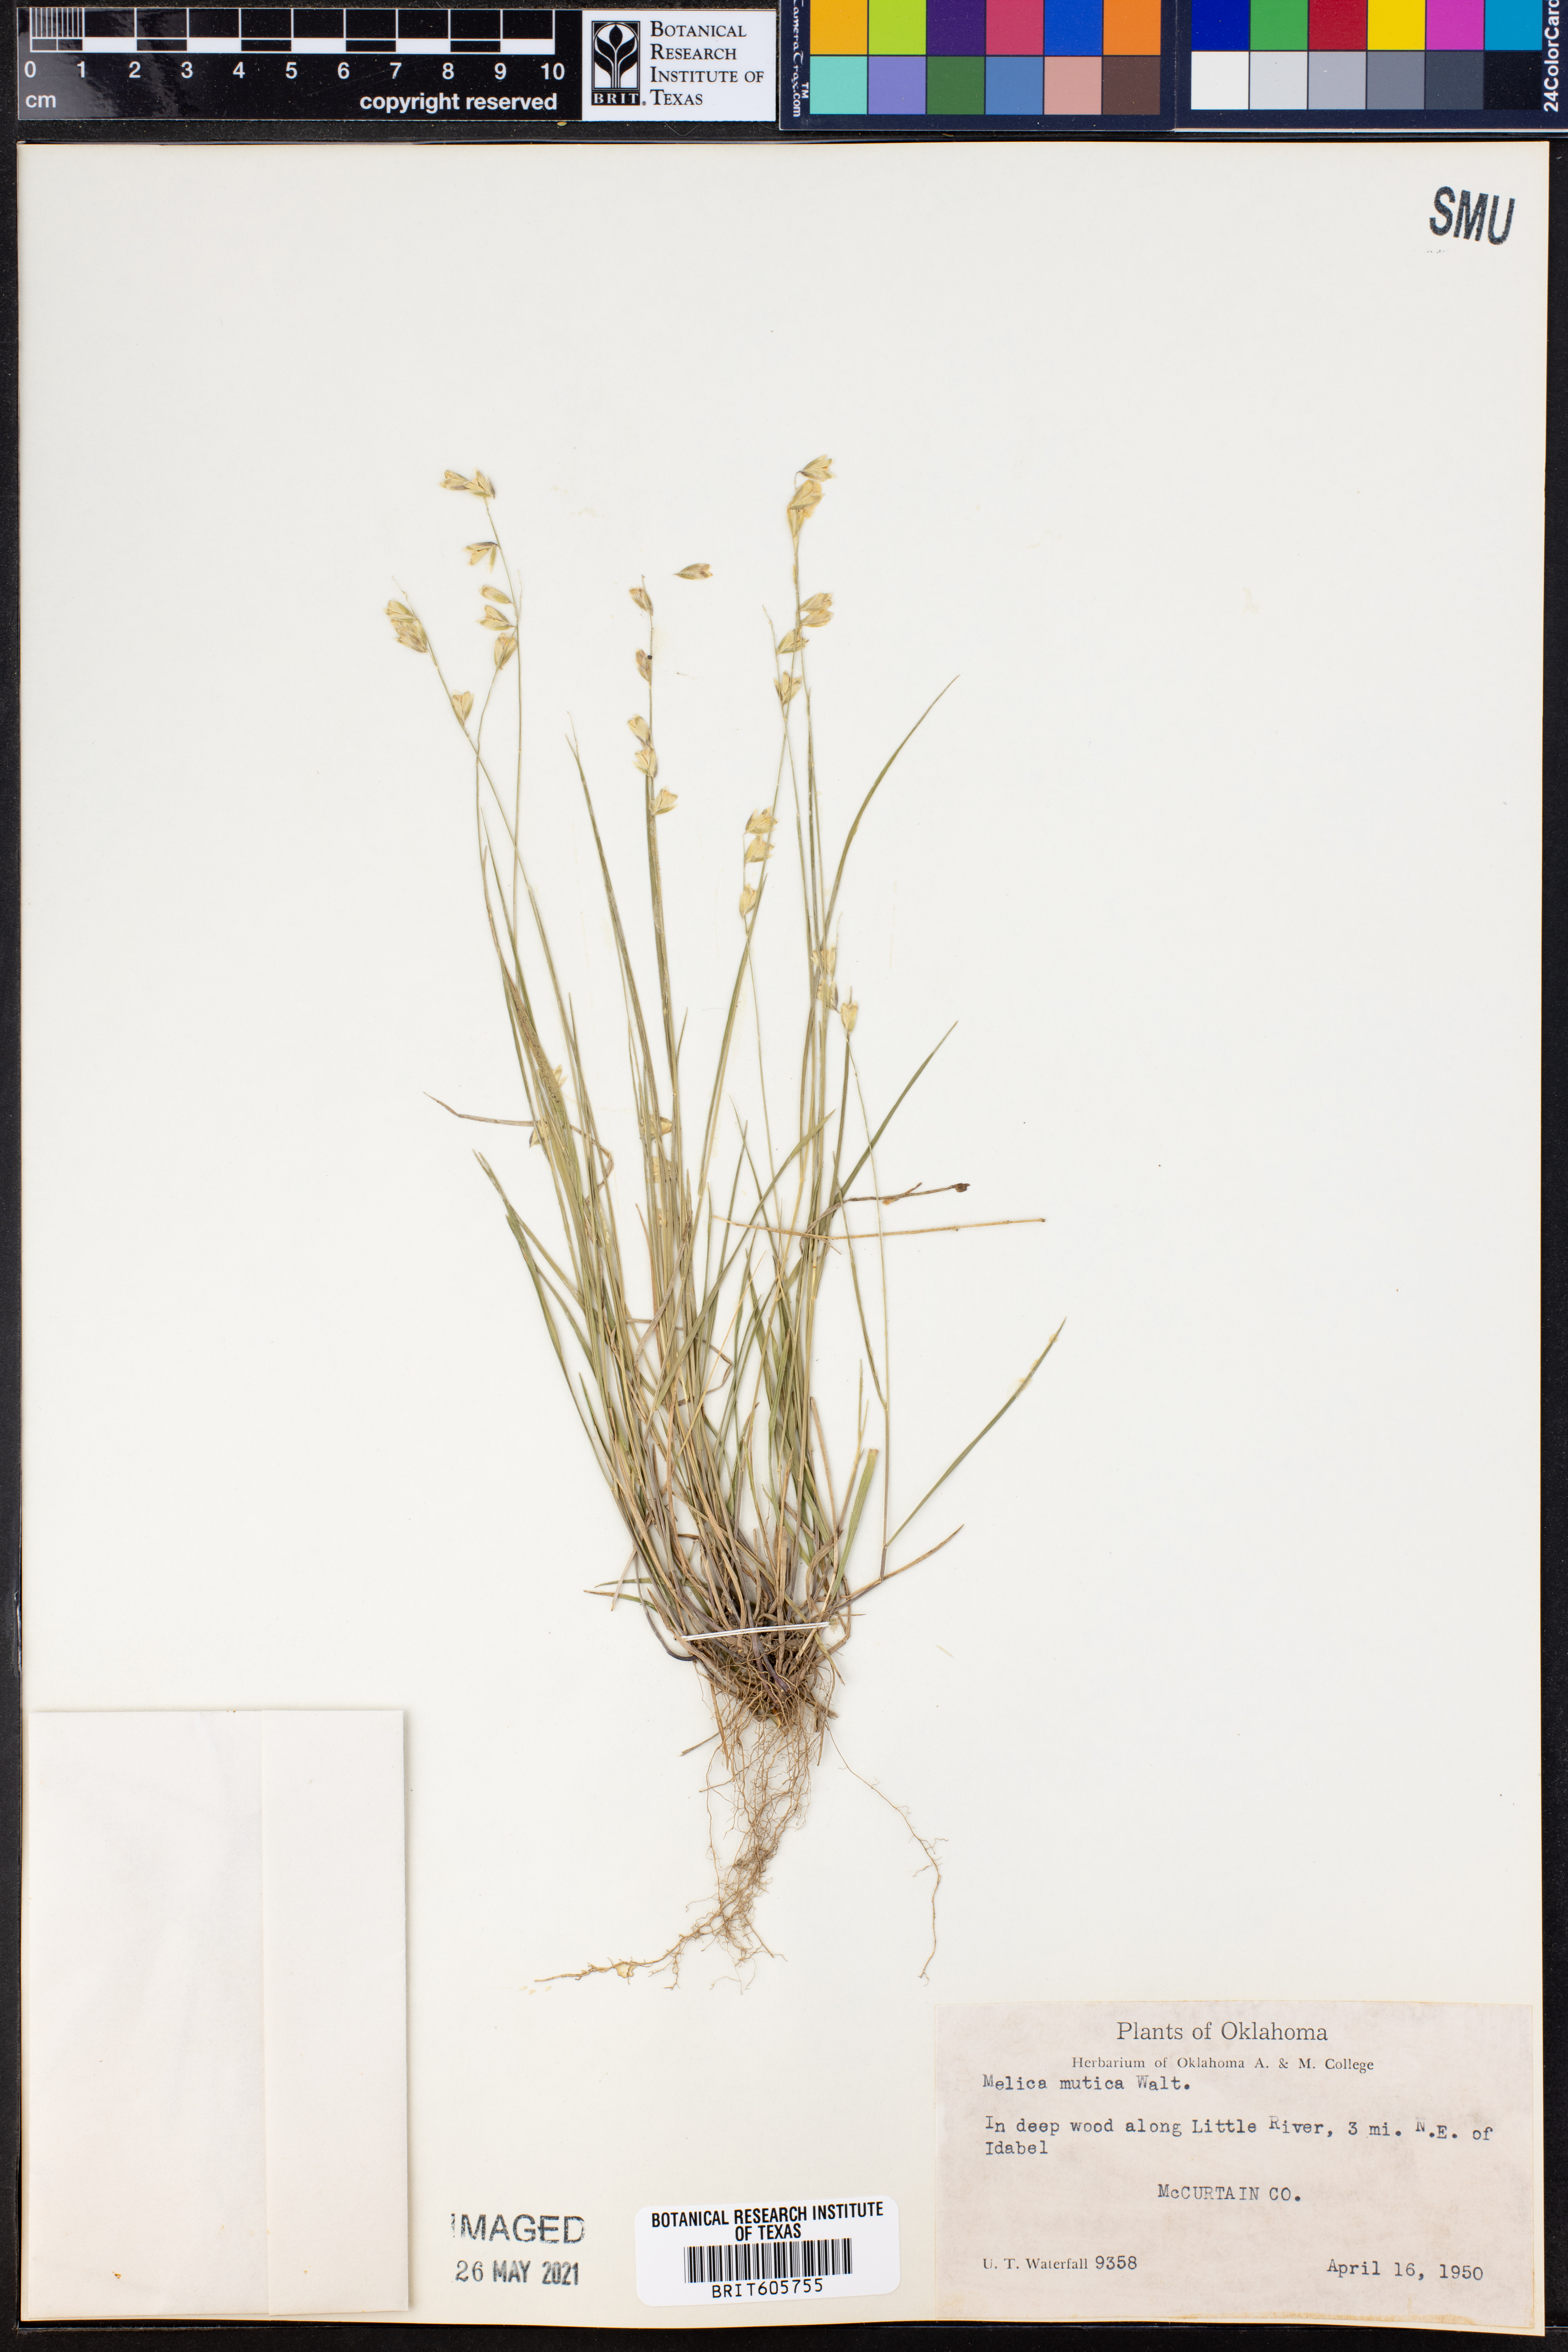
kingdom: Plantae
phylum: Tracheophyta
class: Liliopsida
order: Poales
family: Poaceae
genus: Melica
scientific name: Melica mutica
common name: Two-flower melic
